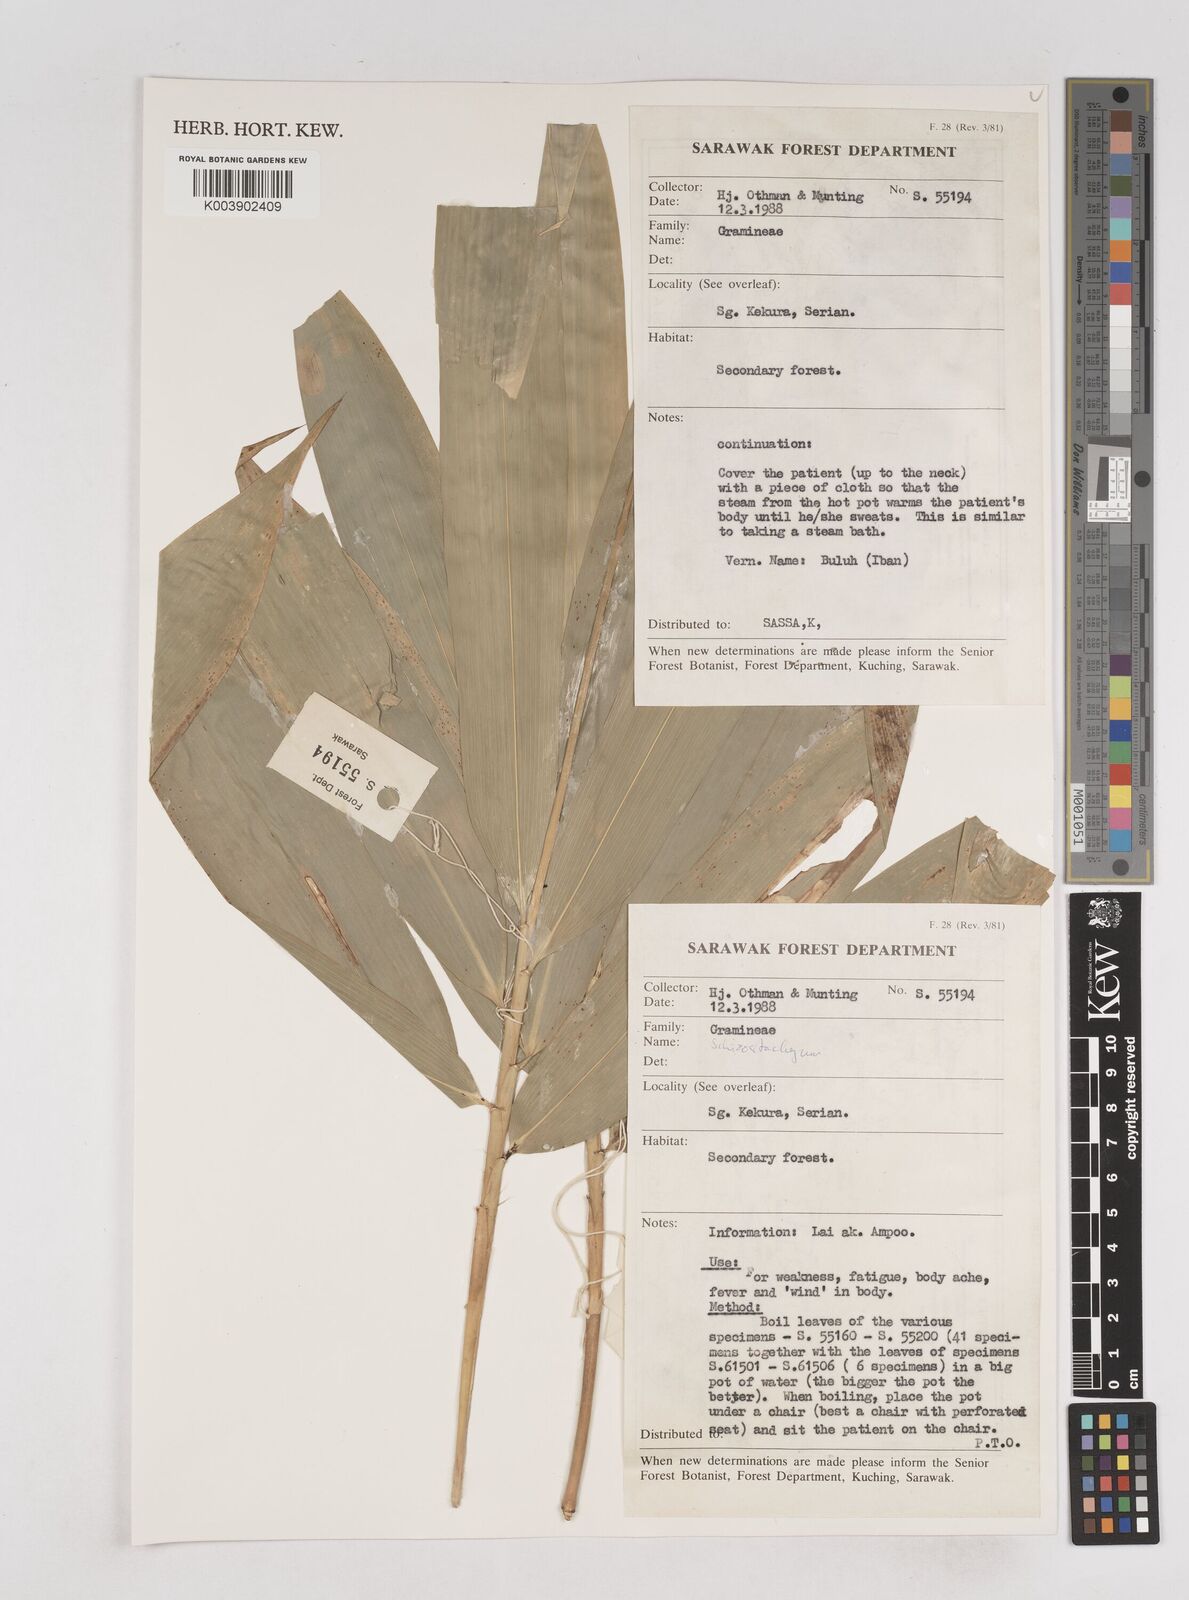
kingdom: Plantae
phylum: Tracheophyta
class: Liliopsida
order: Poales
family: Poaceae
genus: Schizostachyum
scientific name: Schizostachyum
